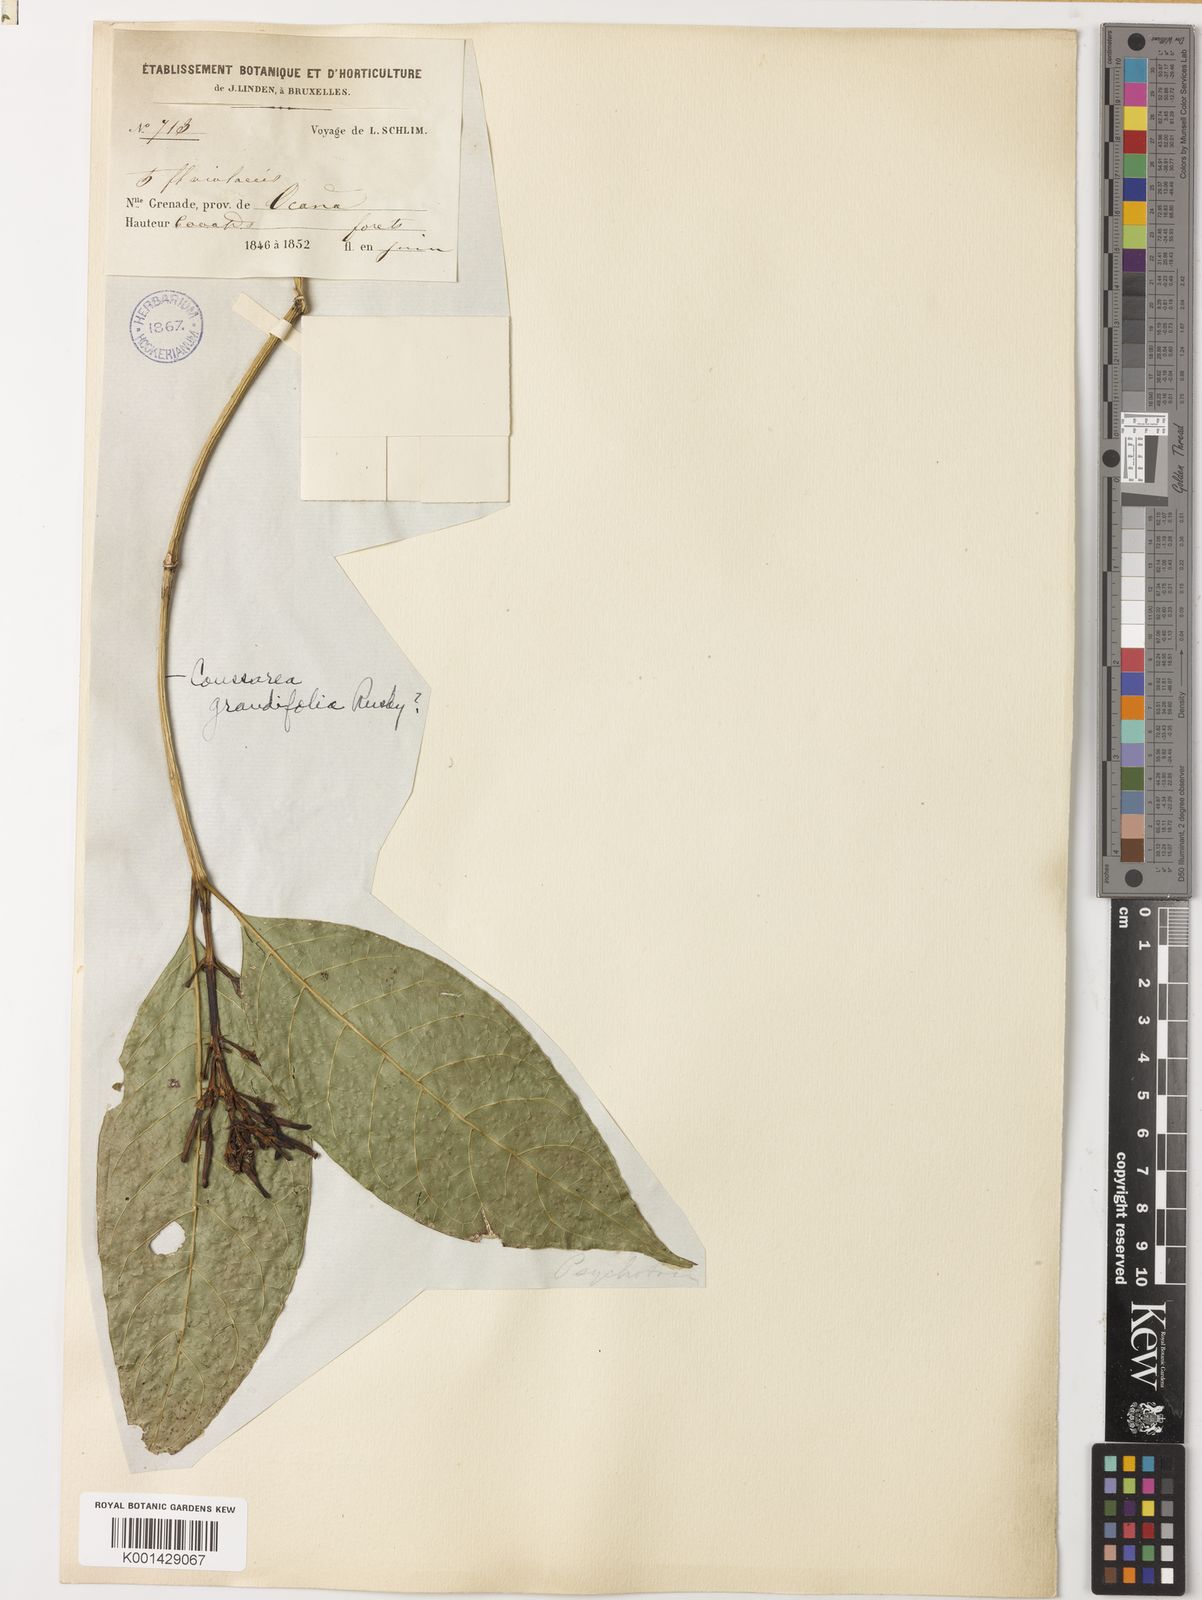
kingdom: Plantae
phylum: Tracheophyta
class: Magnoliopsida
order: Gentianales
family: Rubiaceae
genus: Coussarea
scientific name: Coussarea grandifolia
